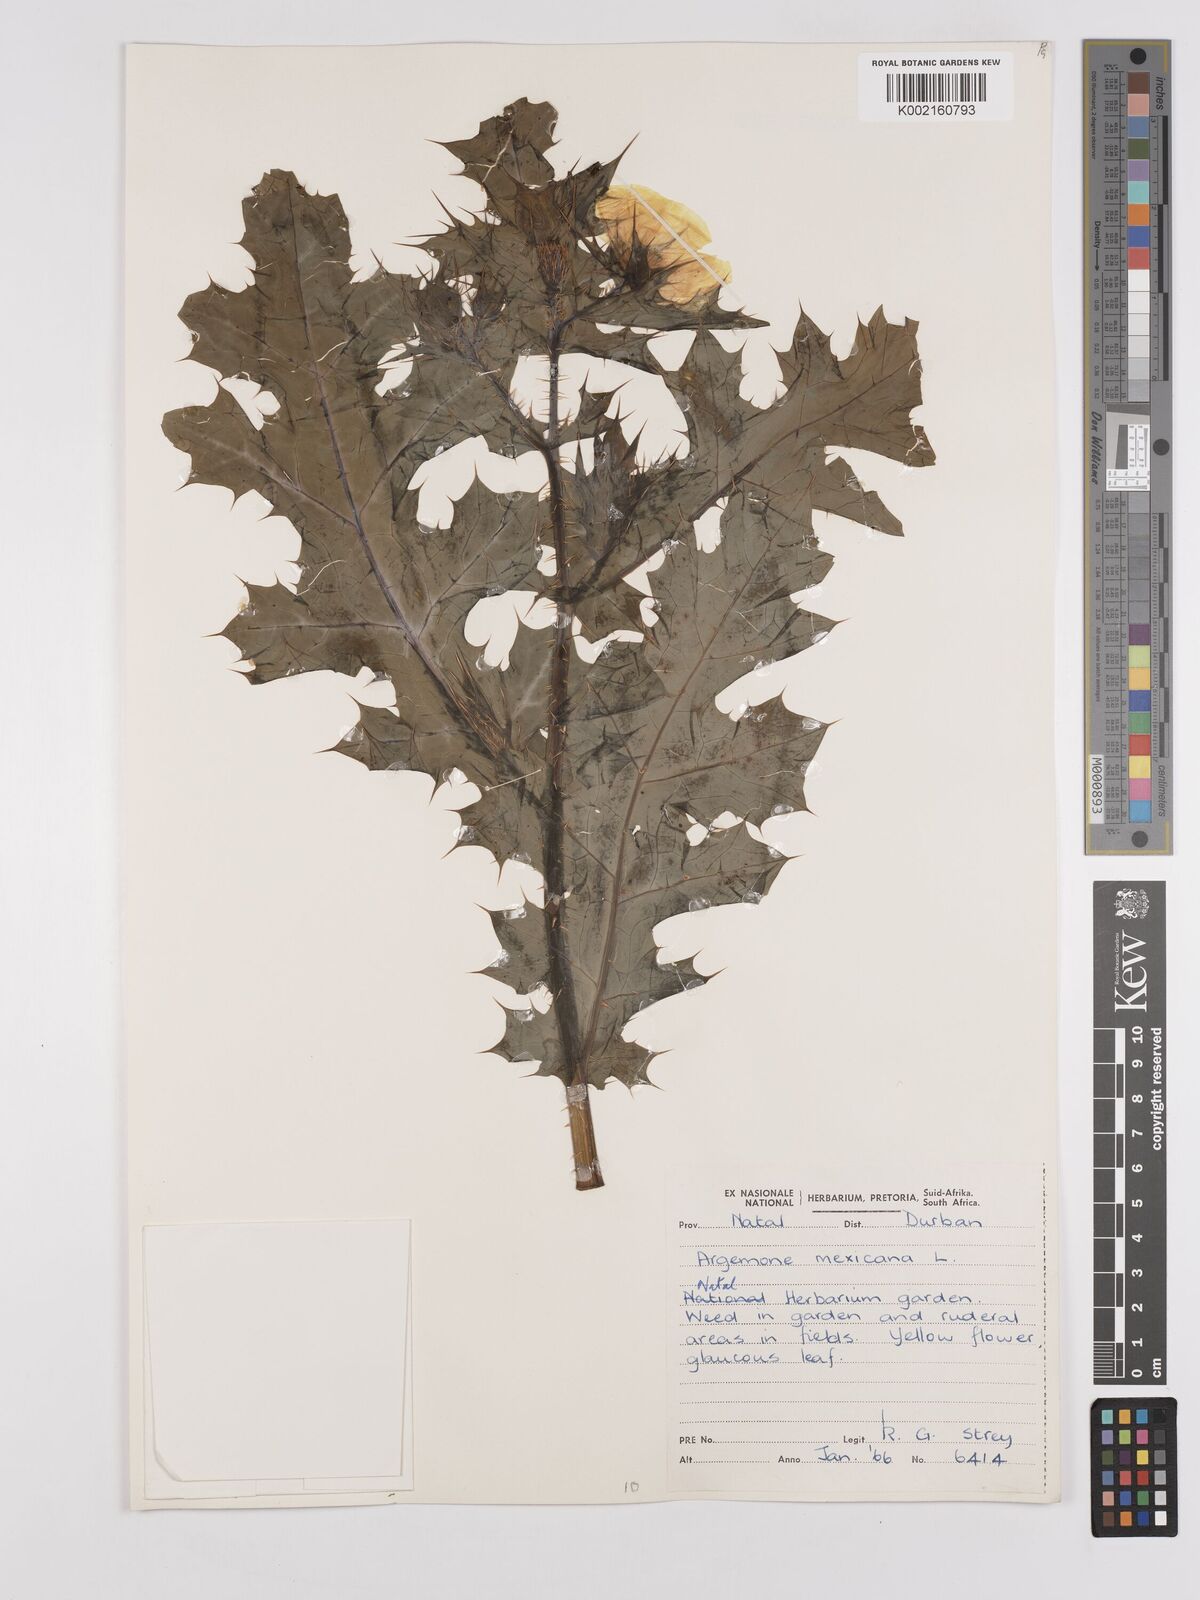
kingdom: Plantae
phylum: Tracheophyta
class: Magnoliopsida
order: Ranunculales
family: Papaveraceae
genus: Argemone
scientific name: Argemone subfusiformis
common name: American-poppy
